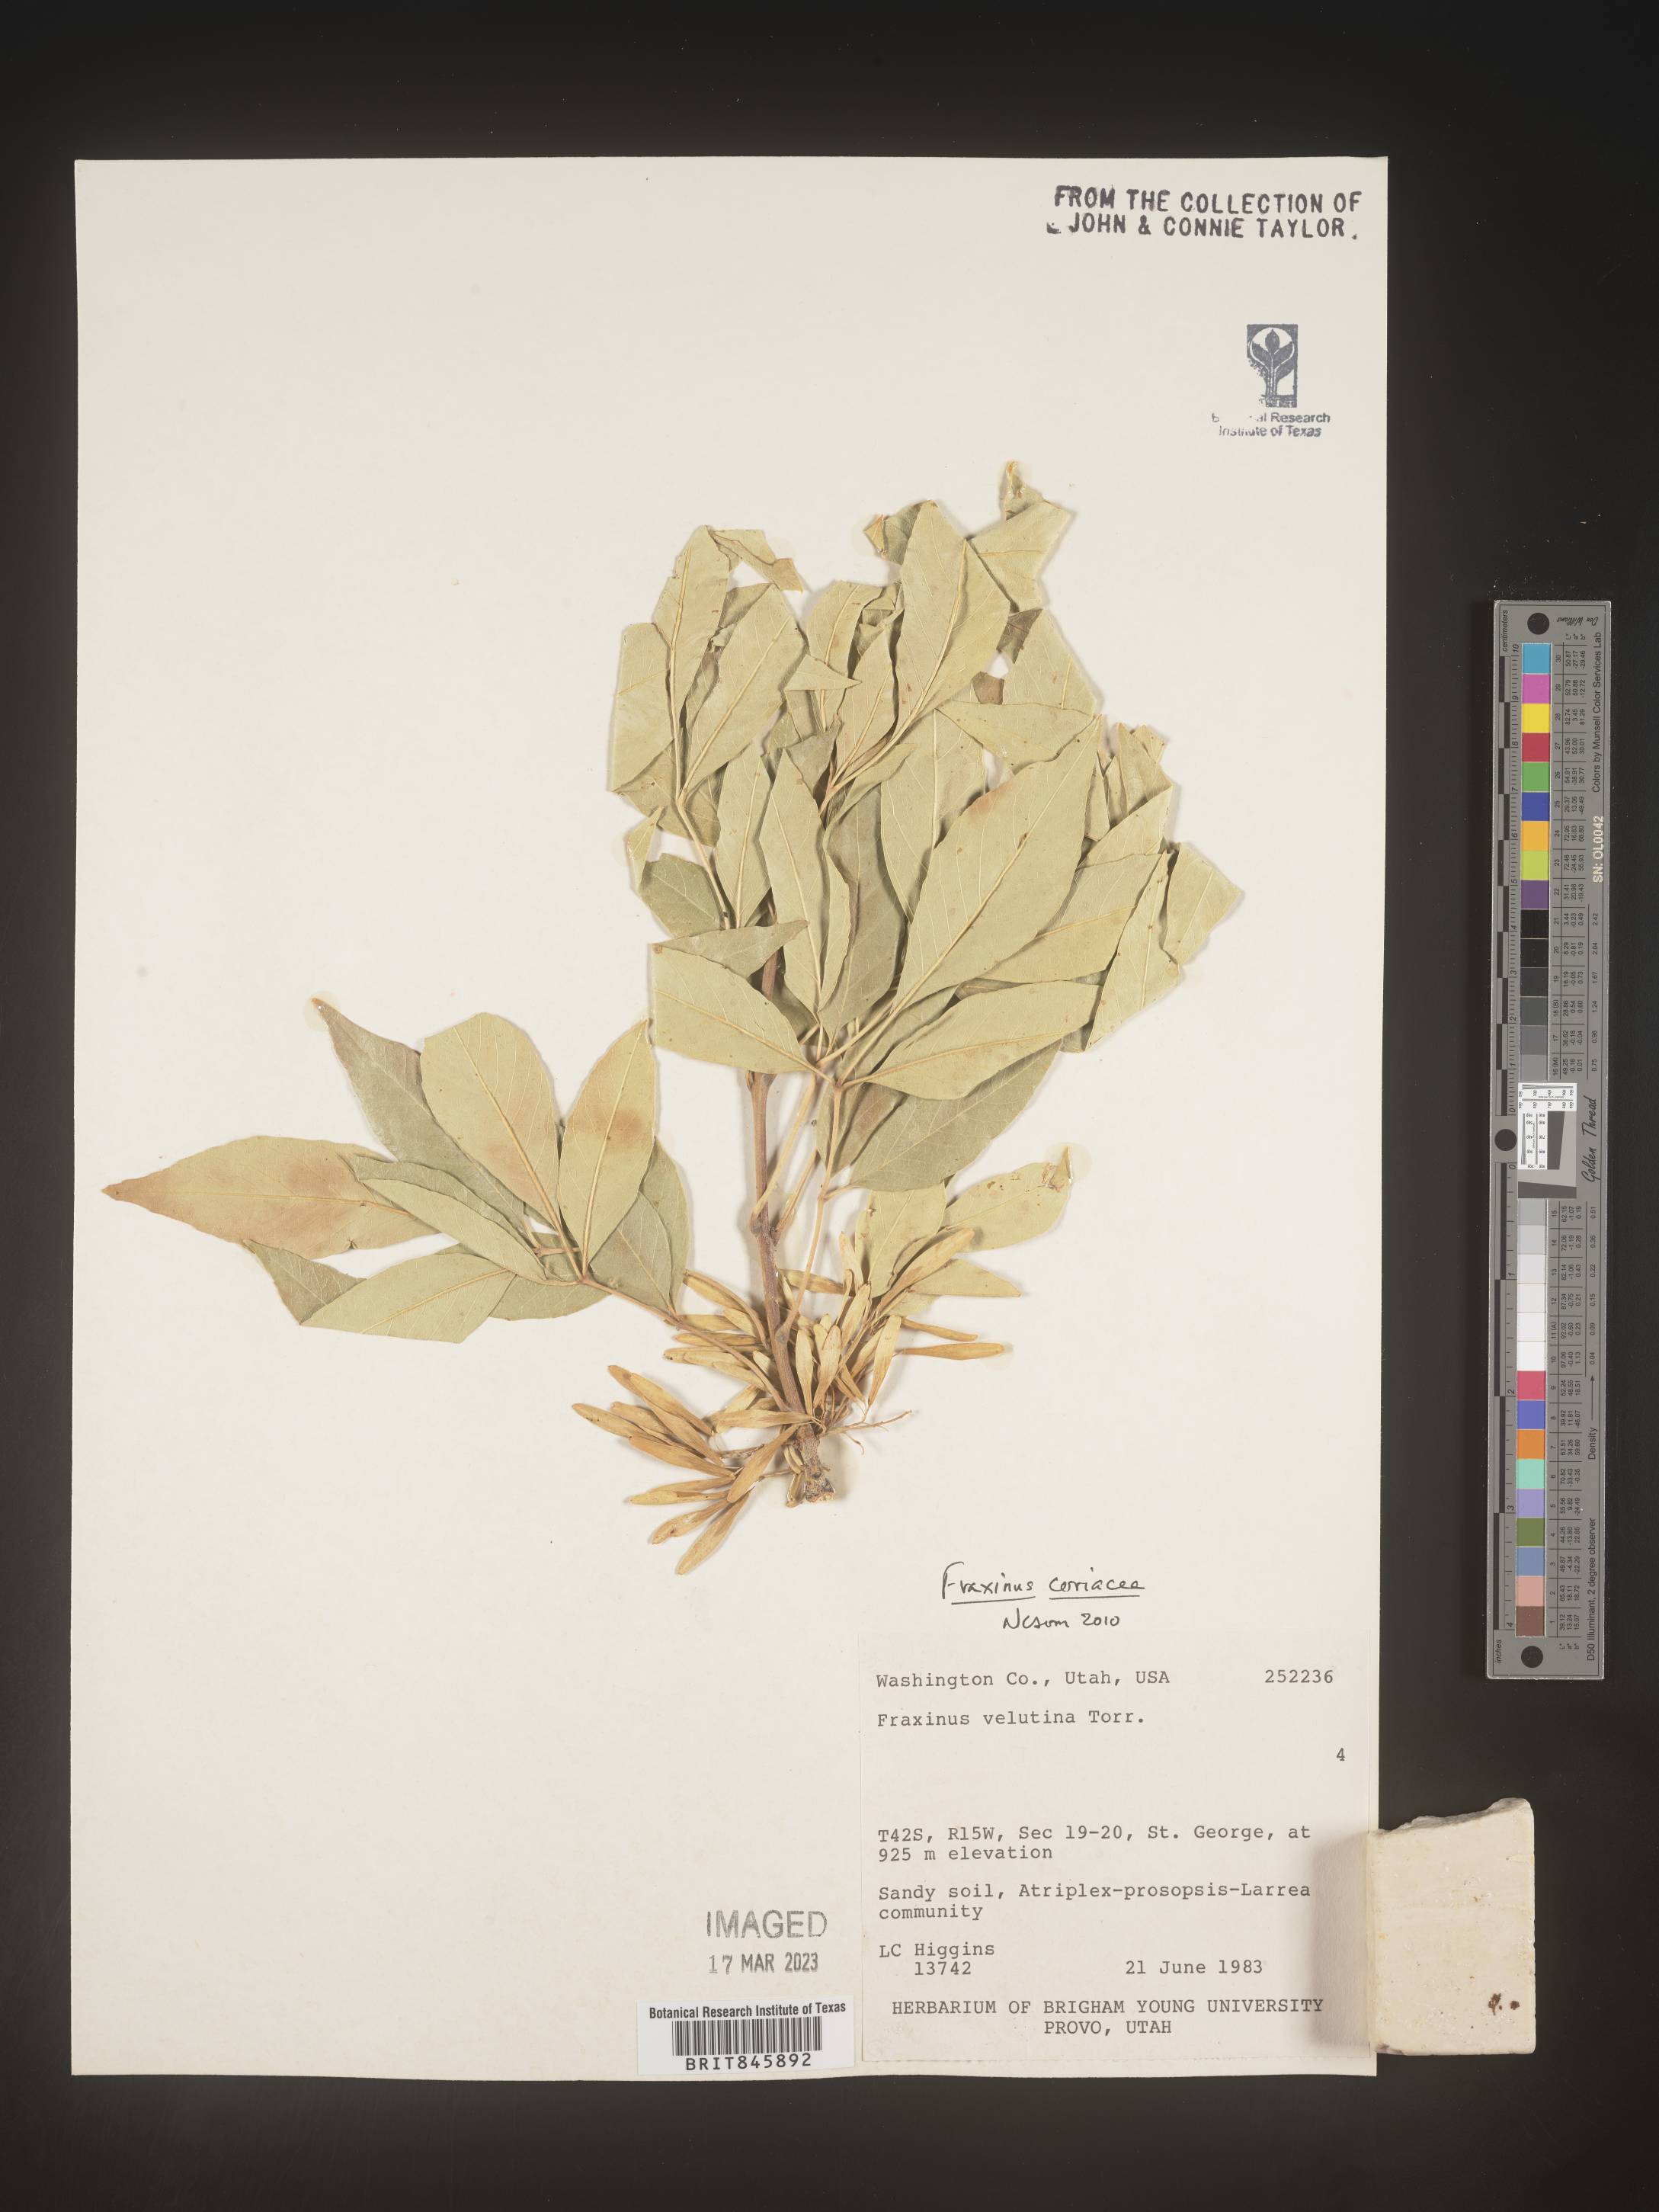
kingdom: Plantae
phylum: Tracheophyta
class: Magnoliopsida
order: Lamiales
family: Oleaceae
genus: Fraxinus
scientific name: Fraxinus velutina
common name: Arizon ash
